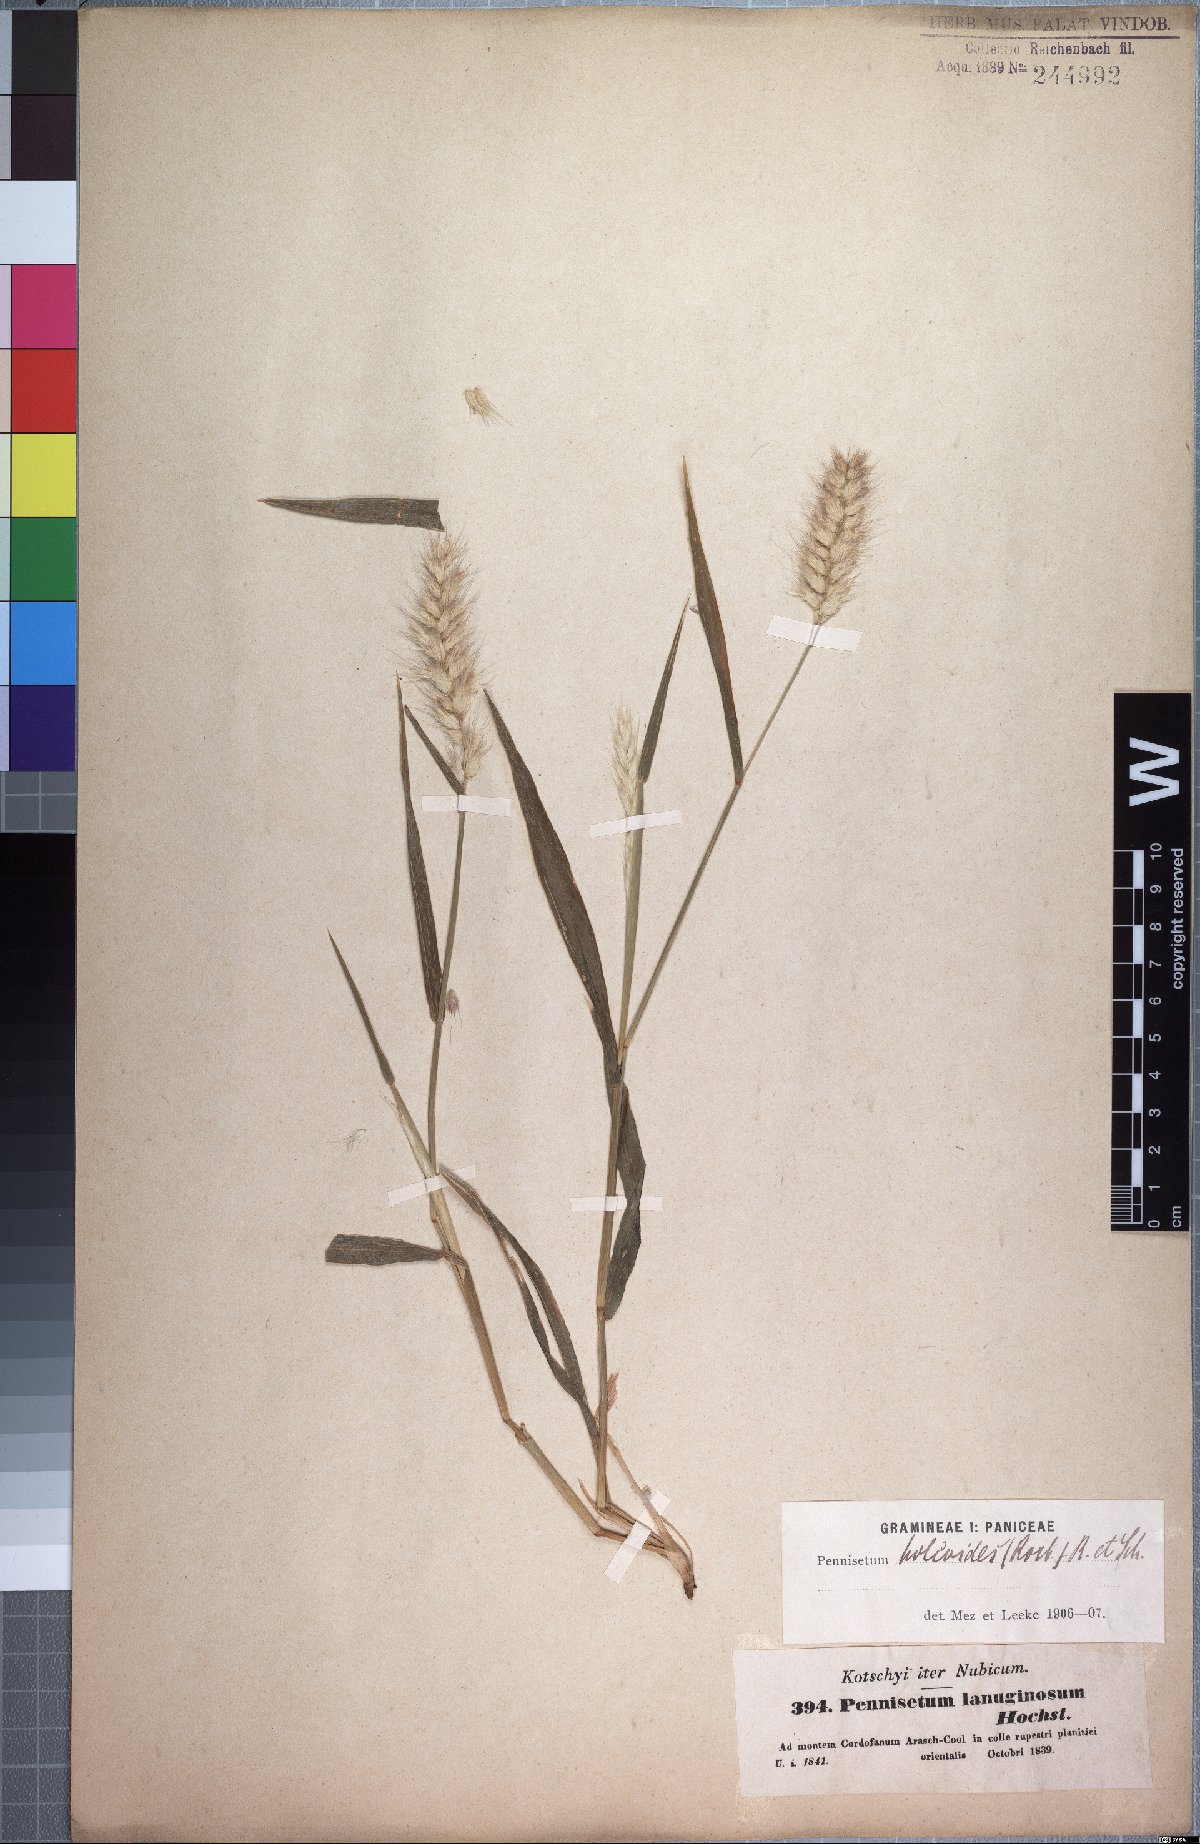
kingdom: Plantae
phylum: Tracheophyta
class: Liliopsida
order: Poales
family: Poaceae
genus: Cenchrus
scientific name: Cenchrus pedicellatus
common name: Hairy fountain grass
